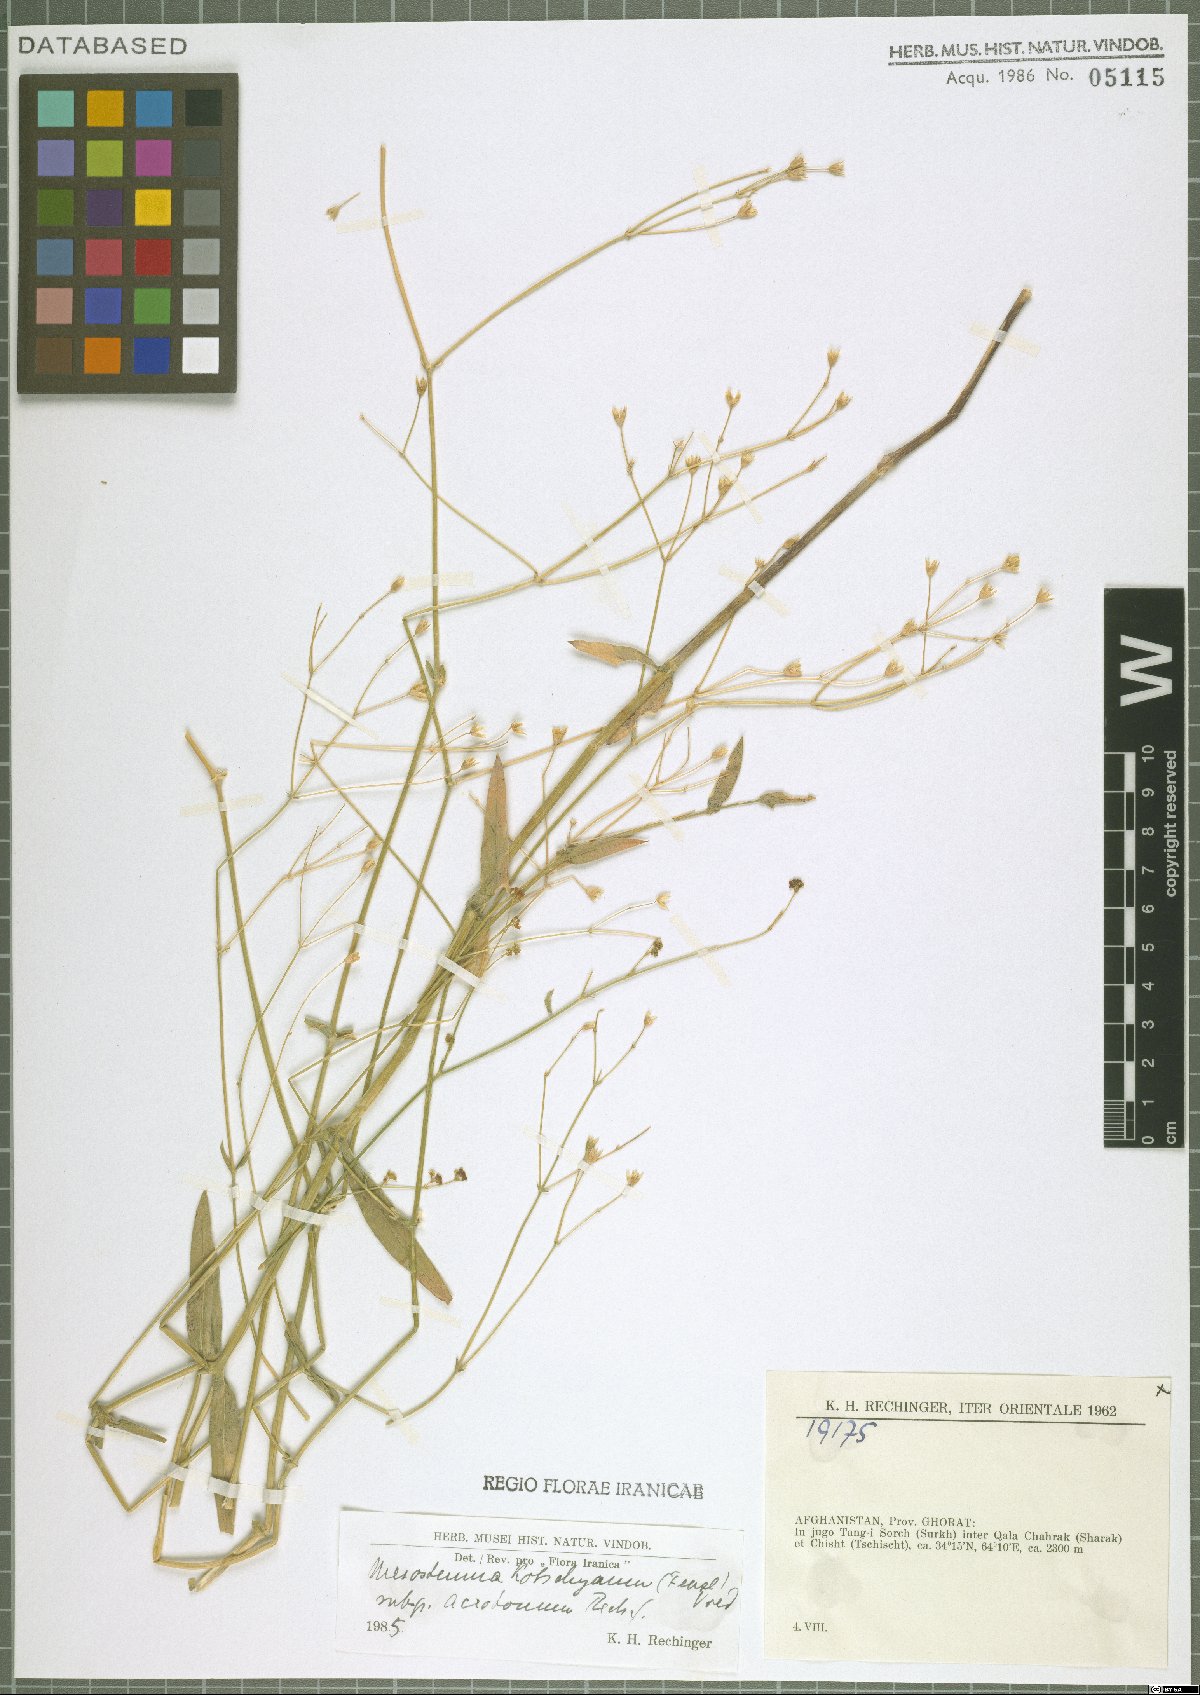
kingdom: Plantae
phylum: Tracheophyta
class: Magnoliopsida
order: Caryophyllales
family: Caryophyllaceae
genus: Mesostemma
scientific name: Mesostemma kotschyanum
